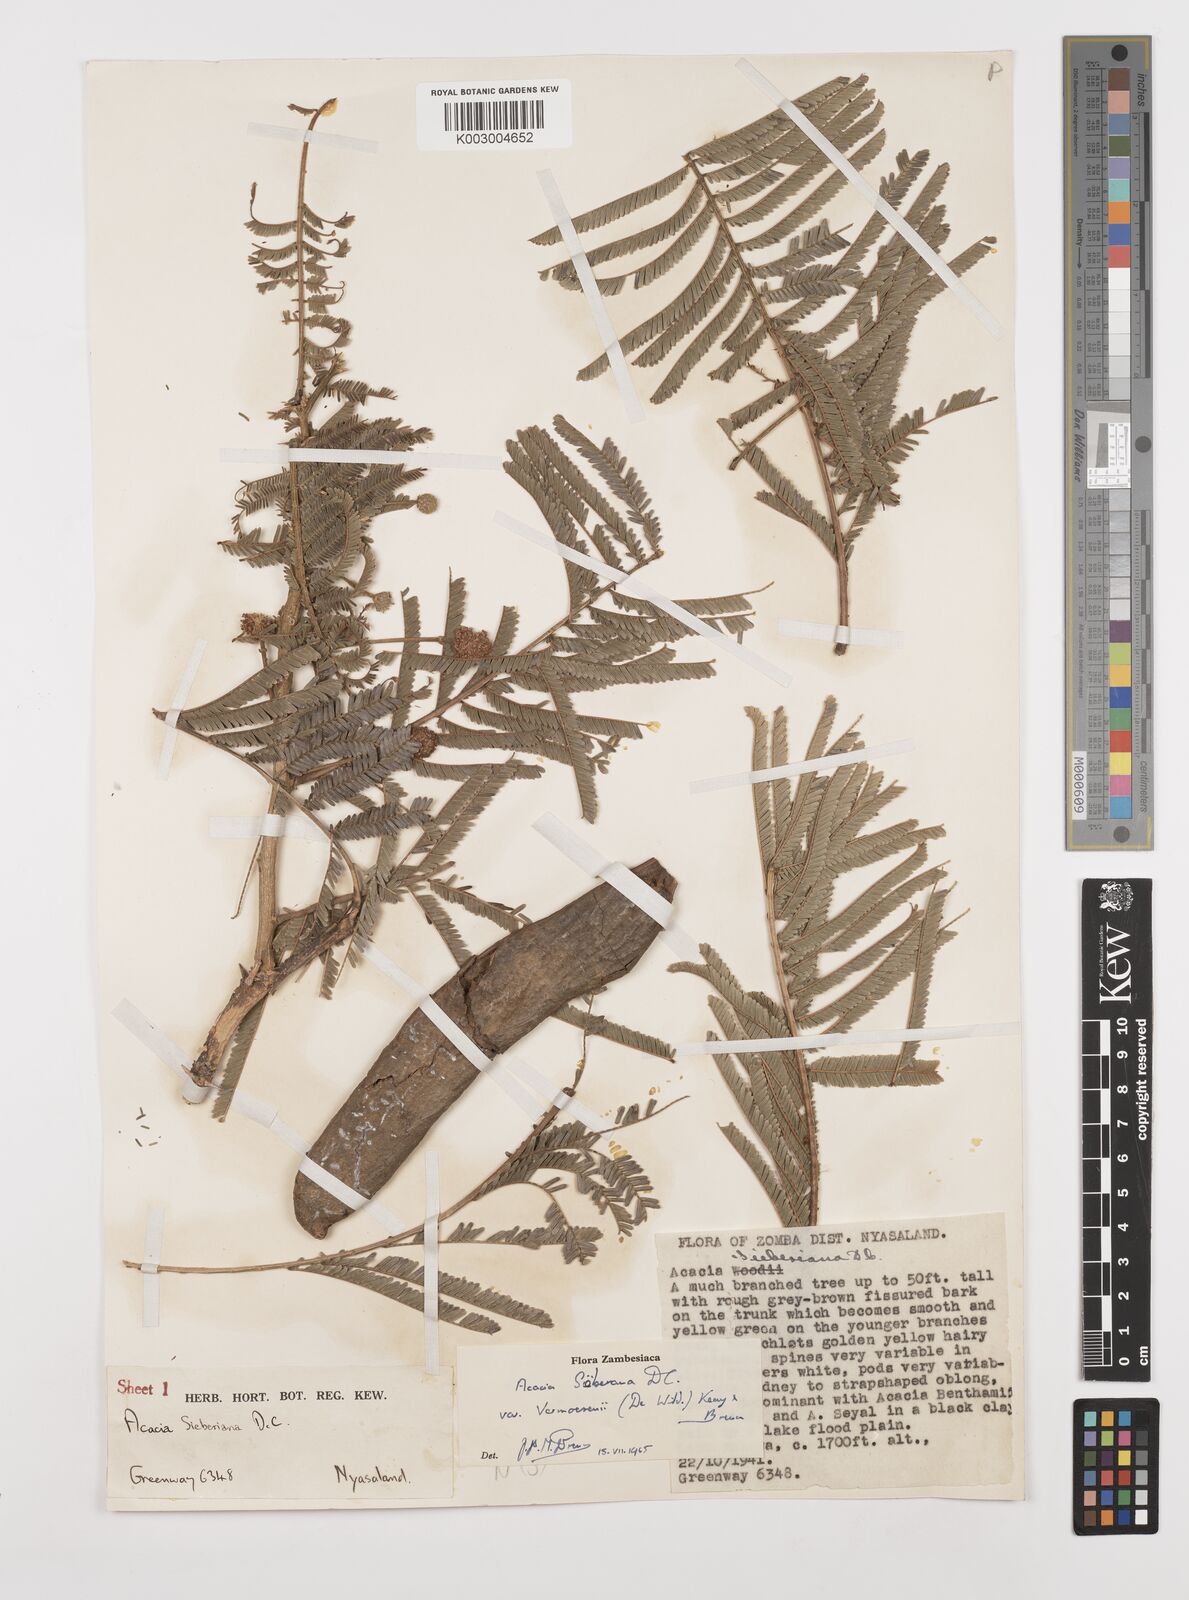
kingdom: Plantae
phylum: Tracheophyta
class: Magnoliopsida
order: Fabales
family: Fabaceae
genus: Vachellia
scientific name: Vachellia sieberiana
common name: Flat-topped thorn
